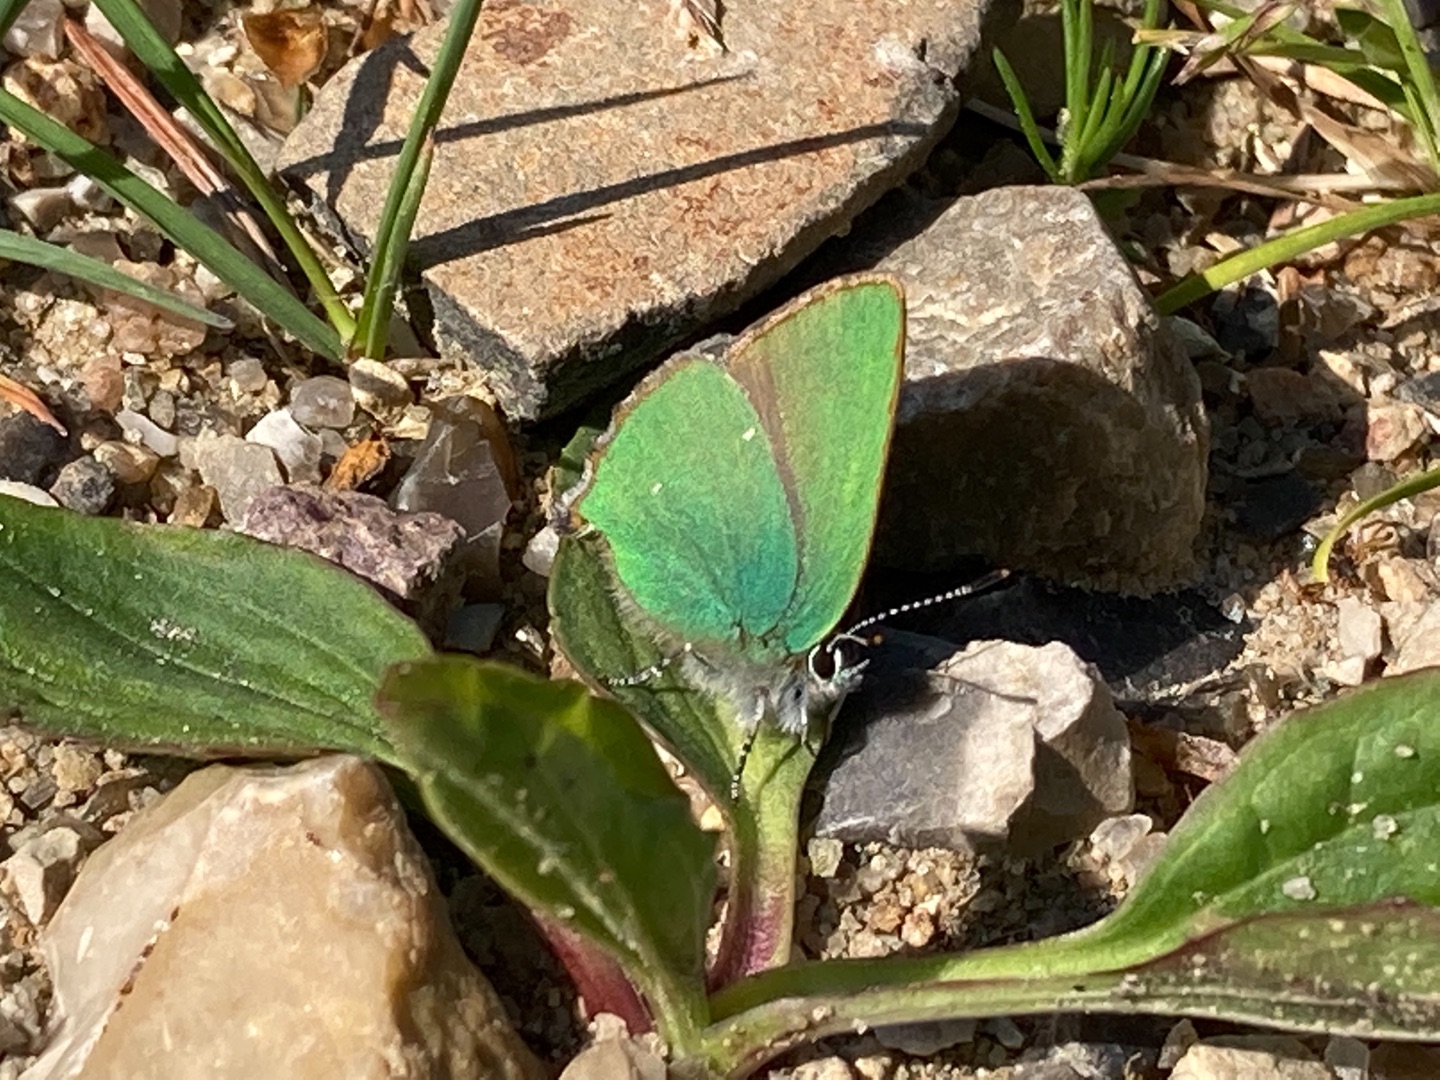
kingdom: Animalia
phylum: Arthropoda
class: Insecta
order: Lepidoptera
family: Lycaenidae
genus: Callophrys
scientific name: Callophrys rubi
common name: Grøn busksommerfugl
